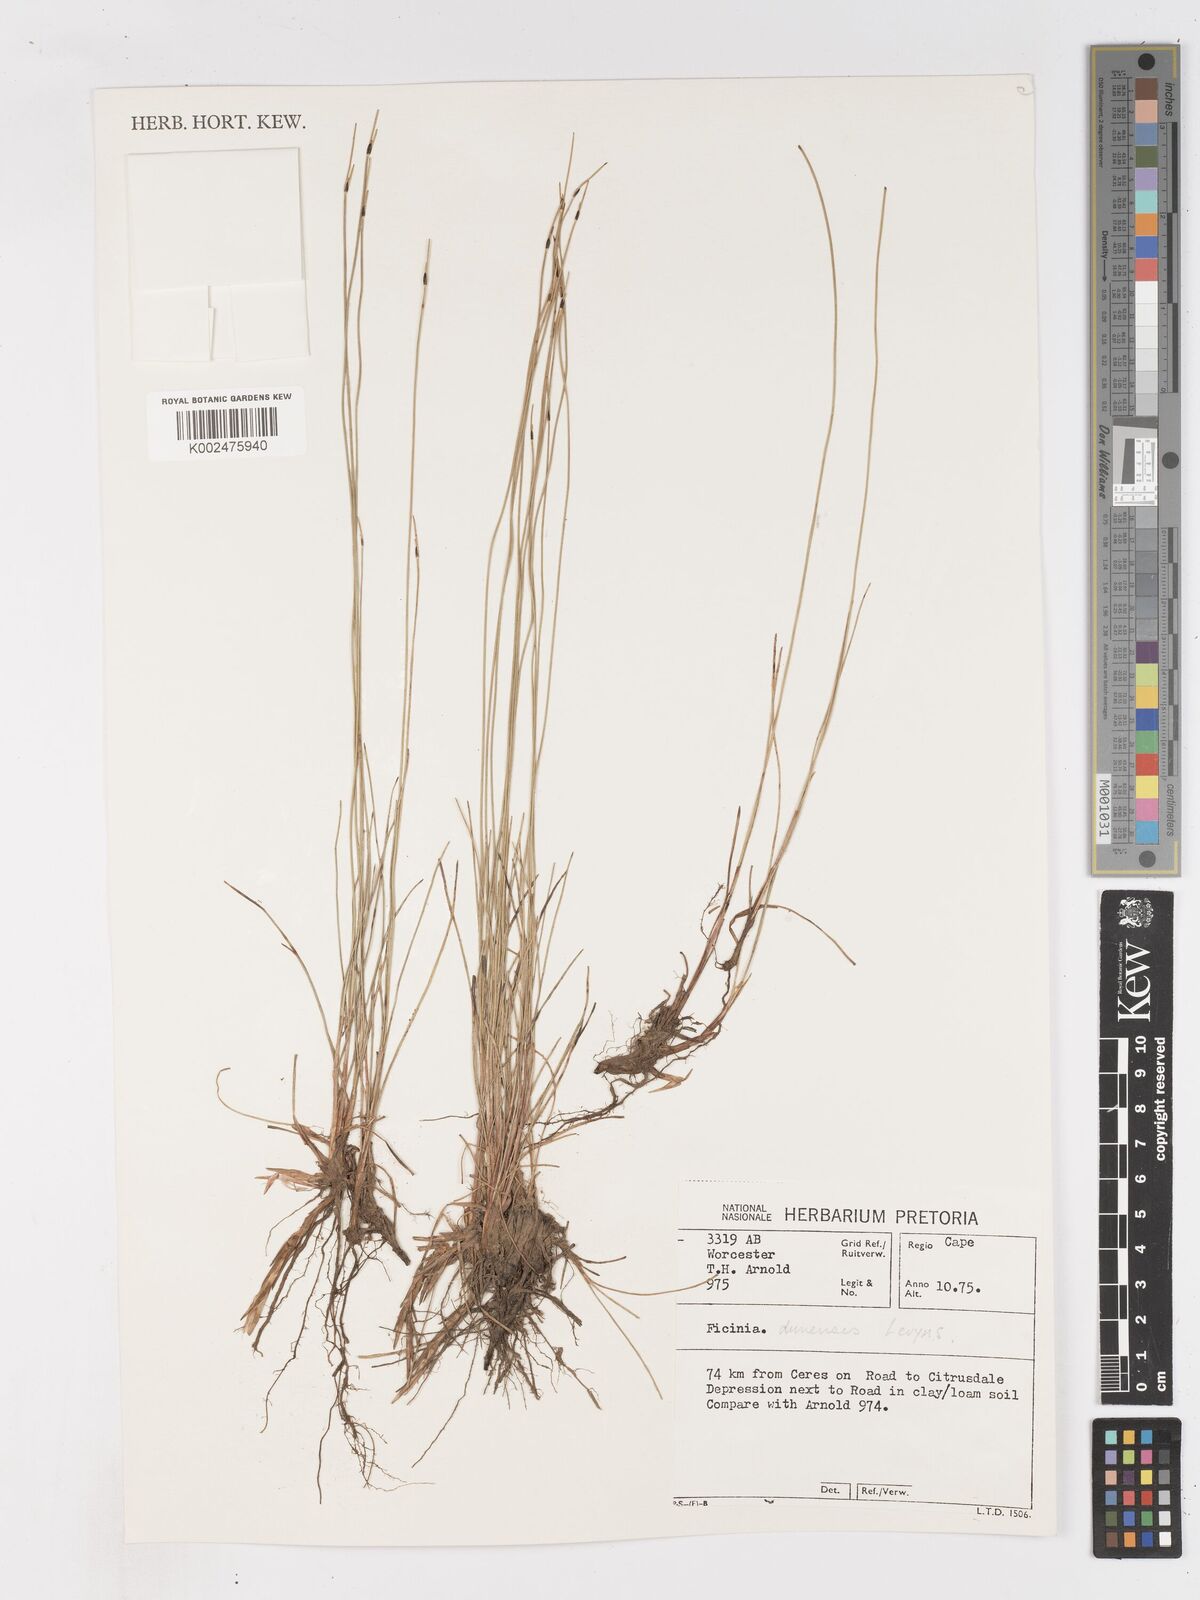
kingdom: Plantae
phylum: Tracheophyta
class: Liliopsida
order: Poales
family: Cyperaceae
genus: Ficinia
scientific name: Ficinia dunensis
